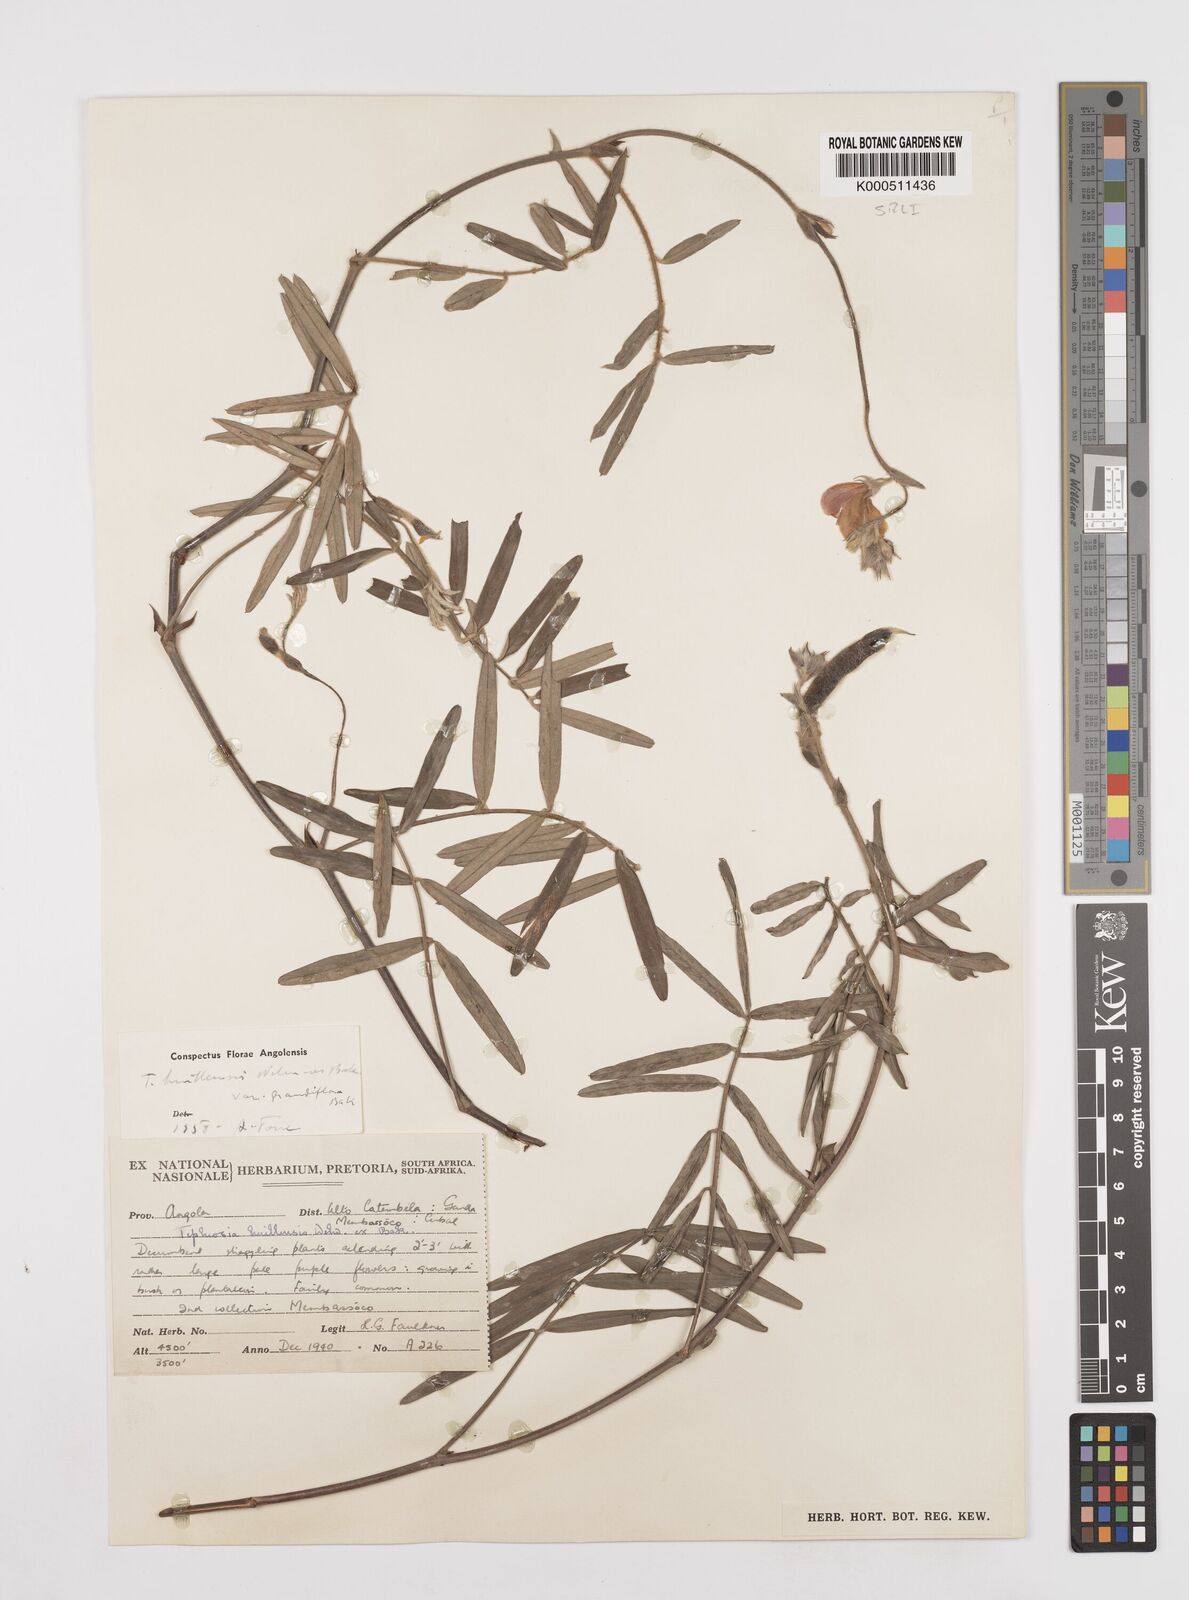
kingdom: Plantae
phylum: Tracheophyta
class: Magnoliopsida
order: Fabales
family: Fabaceae
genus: Tephrosia
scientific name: Tephrosia
